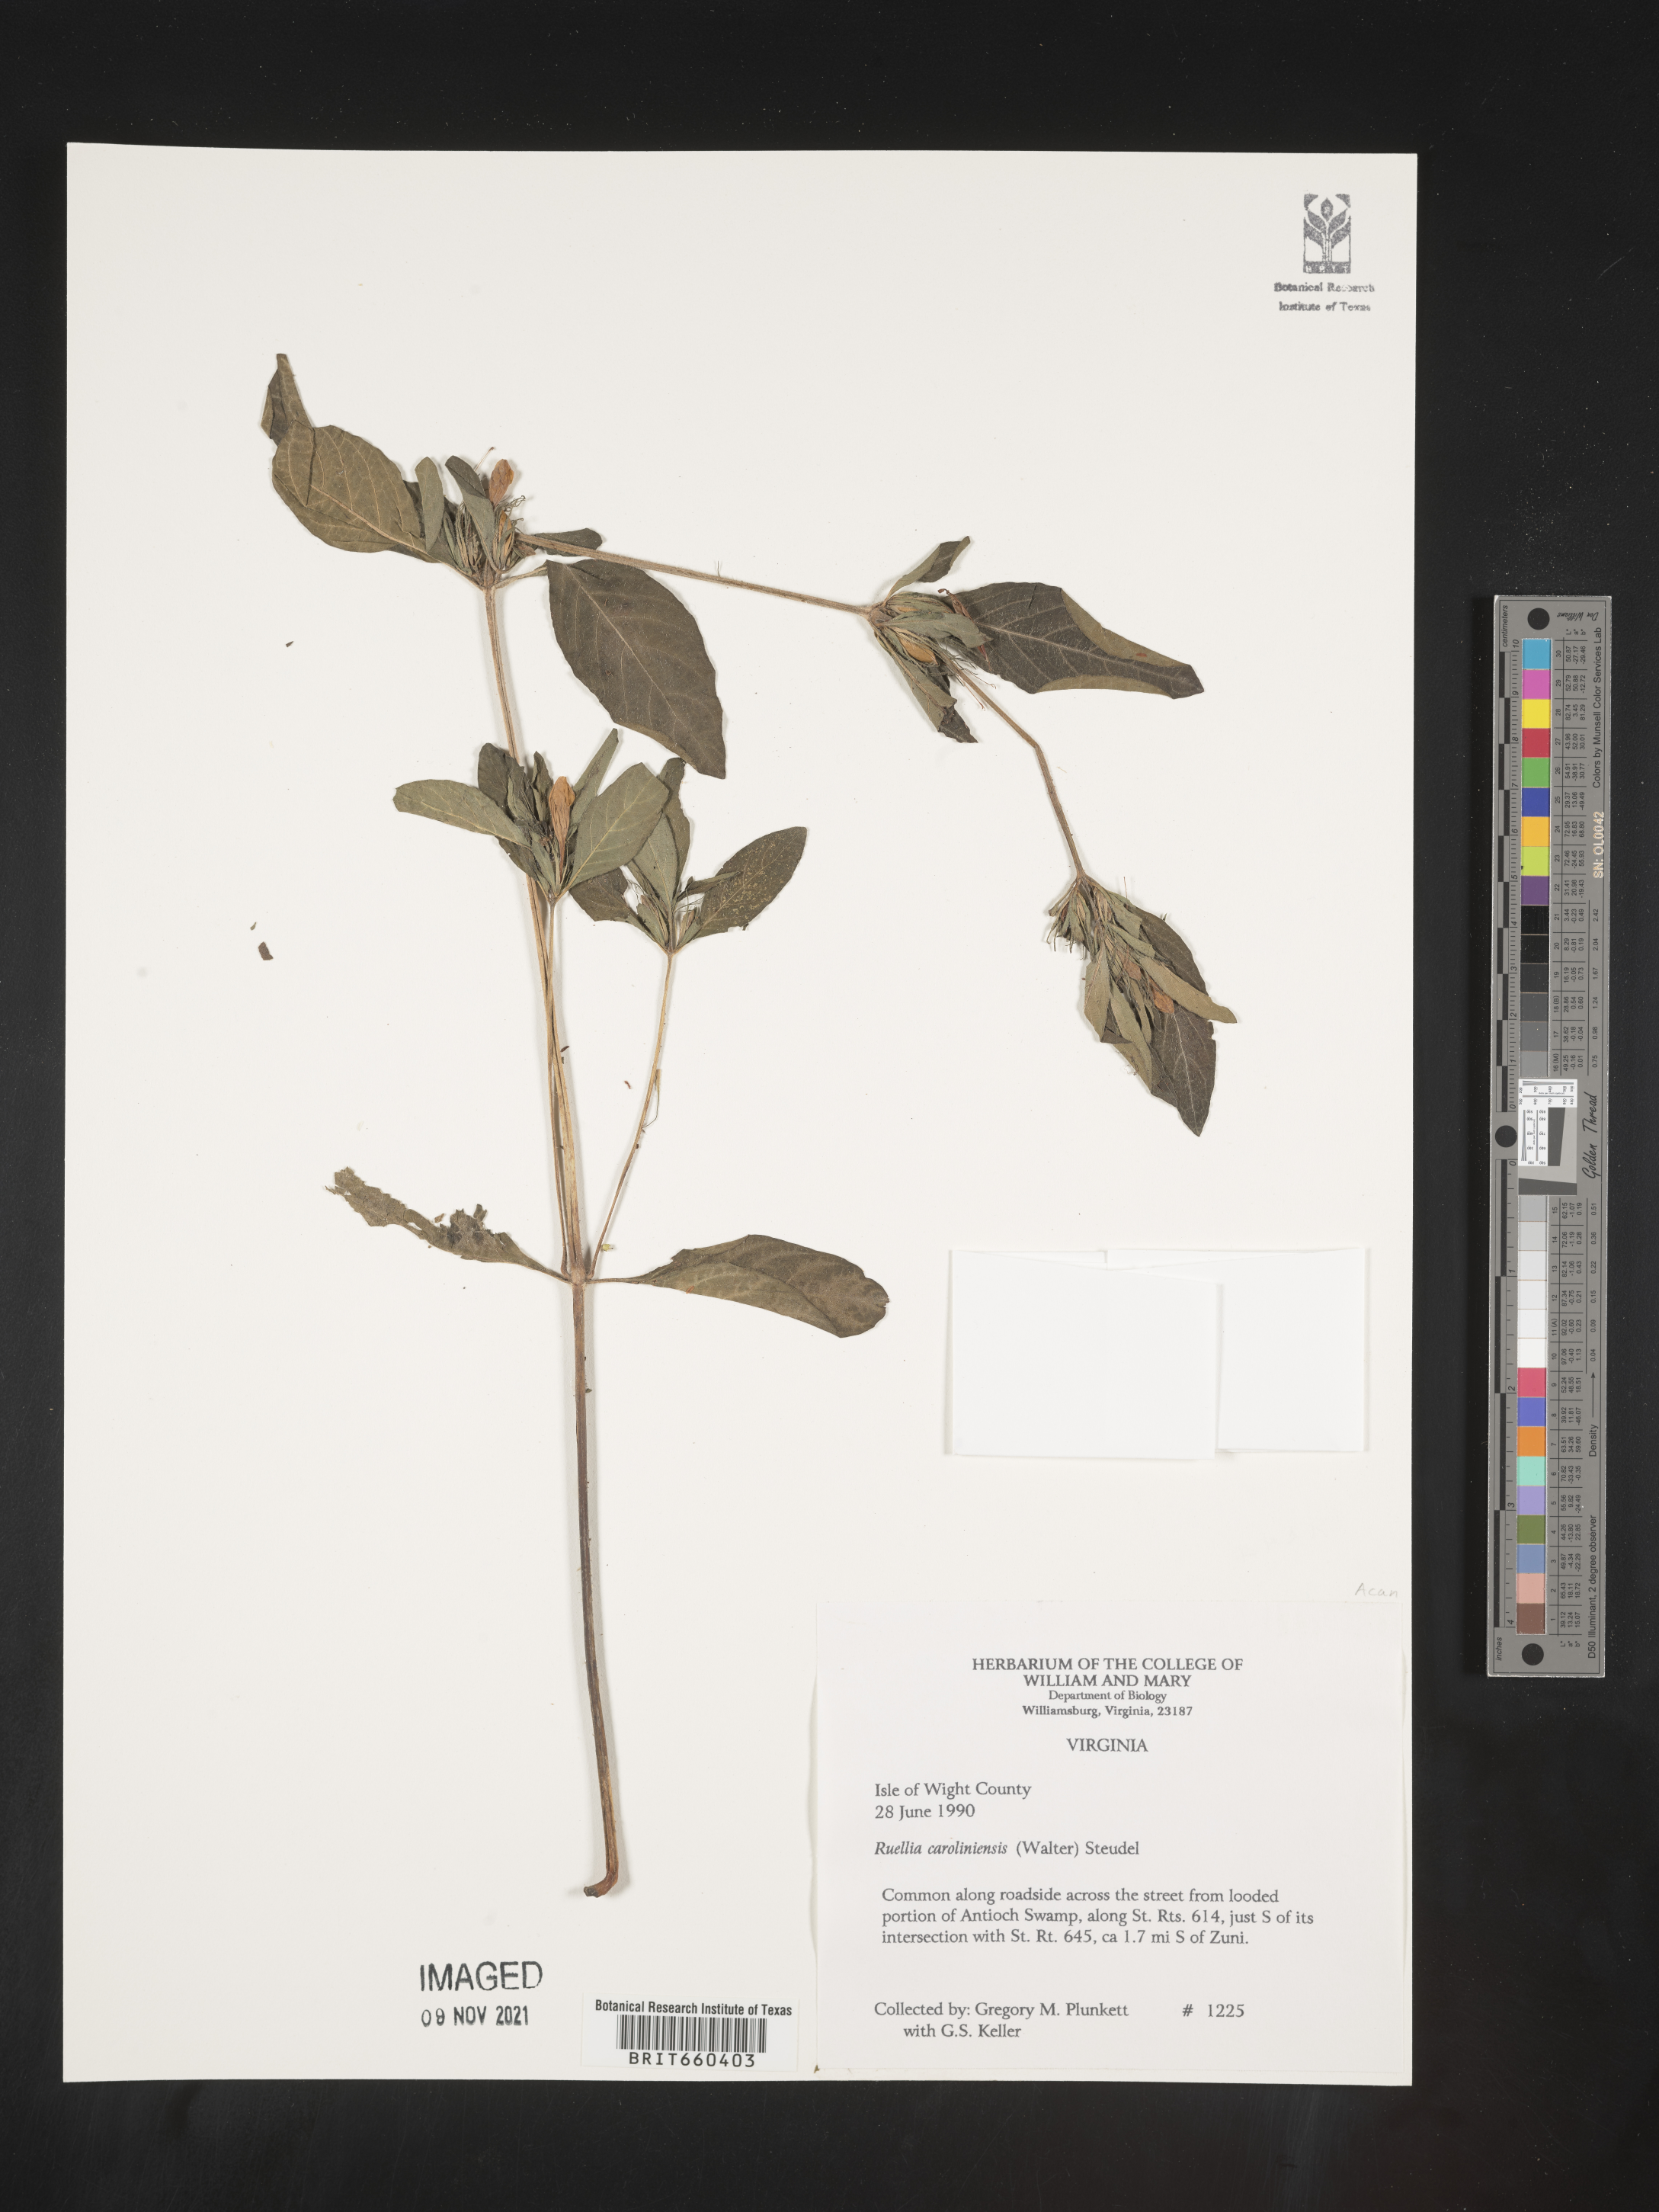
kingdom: Plantae
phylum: Tracheophyta
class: Magnoliopsida
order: Lamiales
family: Acanthaceae
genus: Ruellia
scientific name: Ruellia caroliniensis
